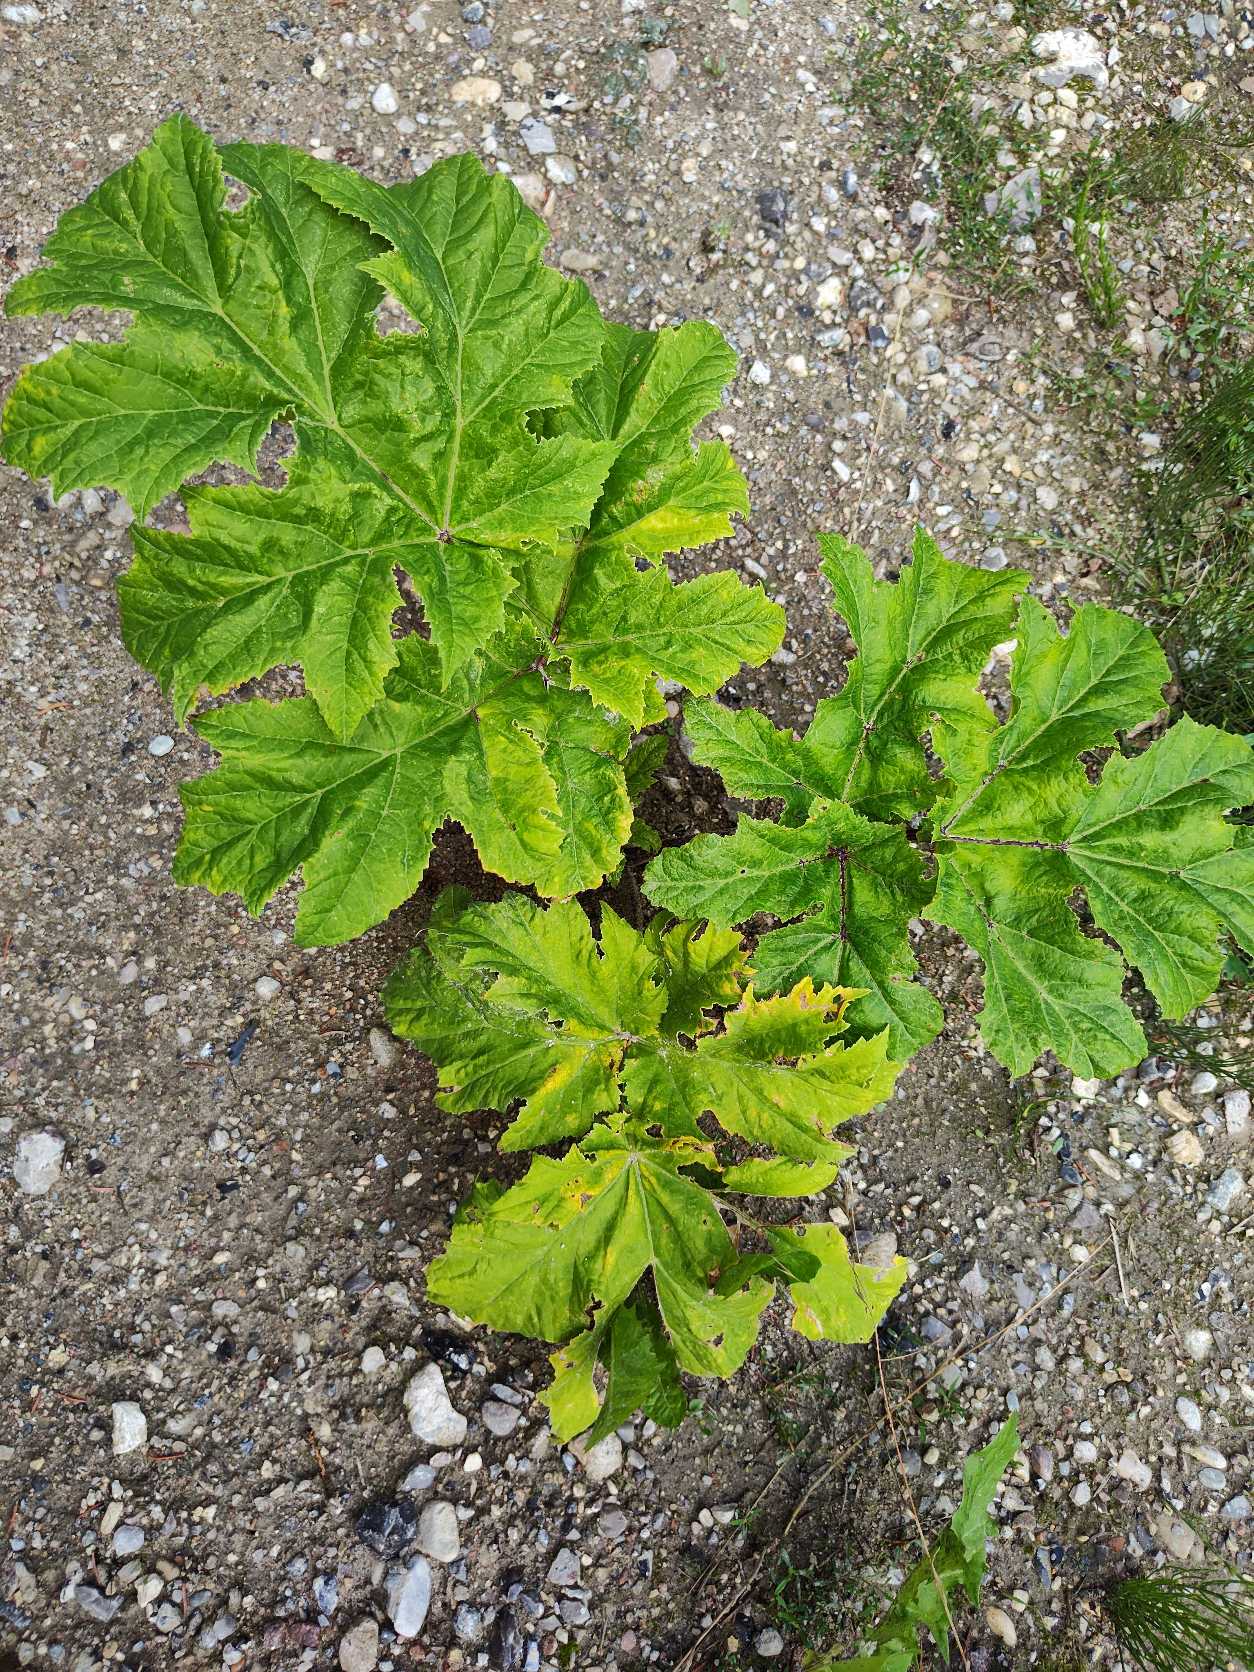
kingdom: Plantae
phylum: Tracheophyta
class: Magnoliopsida
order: Apiales
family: Apiaceae
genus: Heracleum
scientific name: Heracleum mantegazzianum
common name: Kæmpe-bjørneklo
